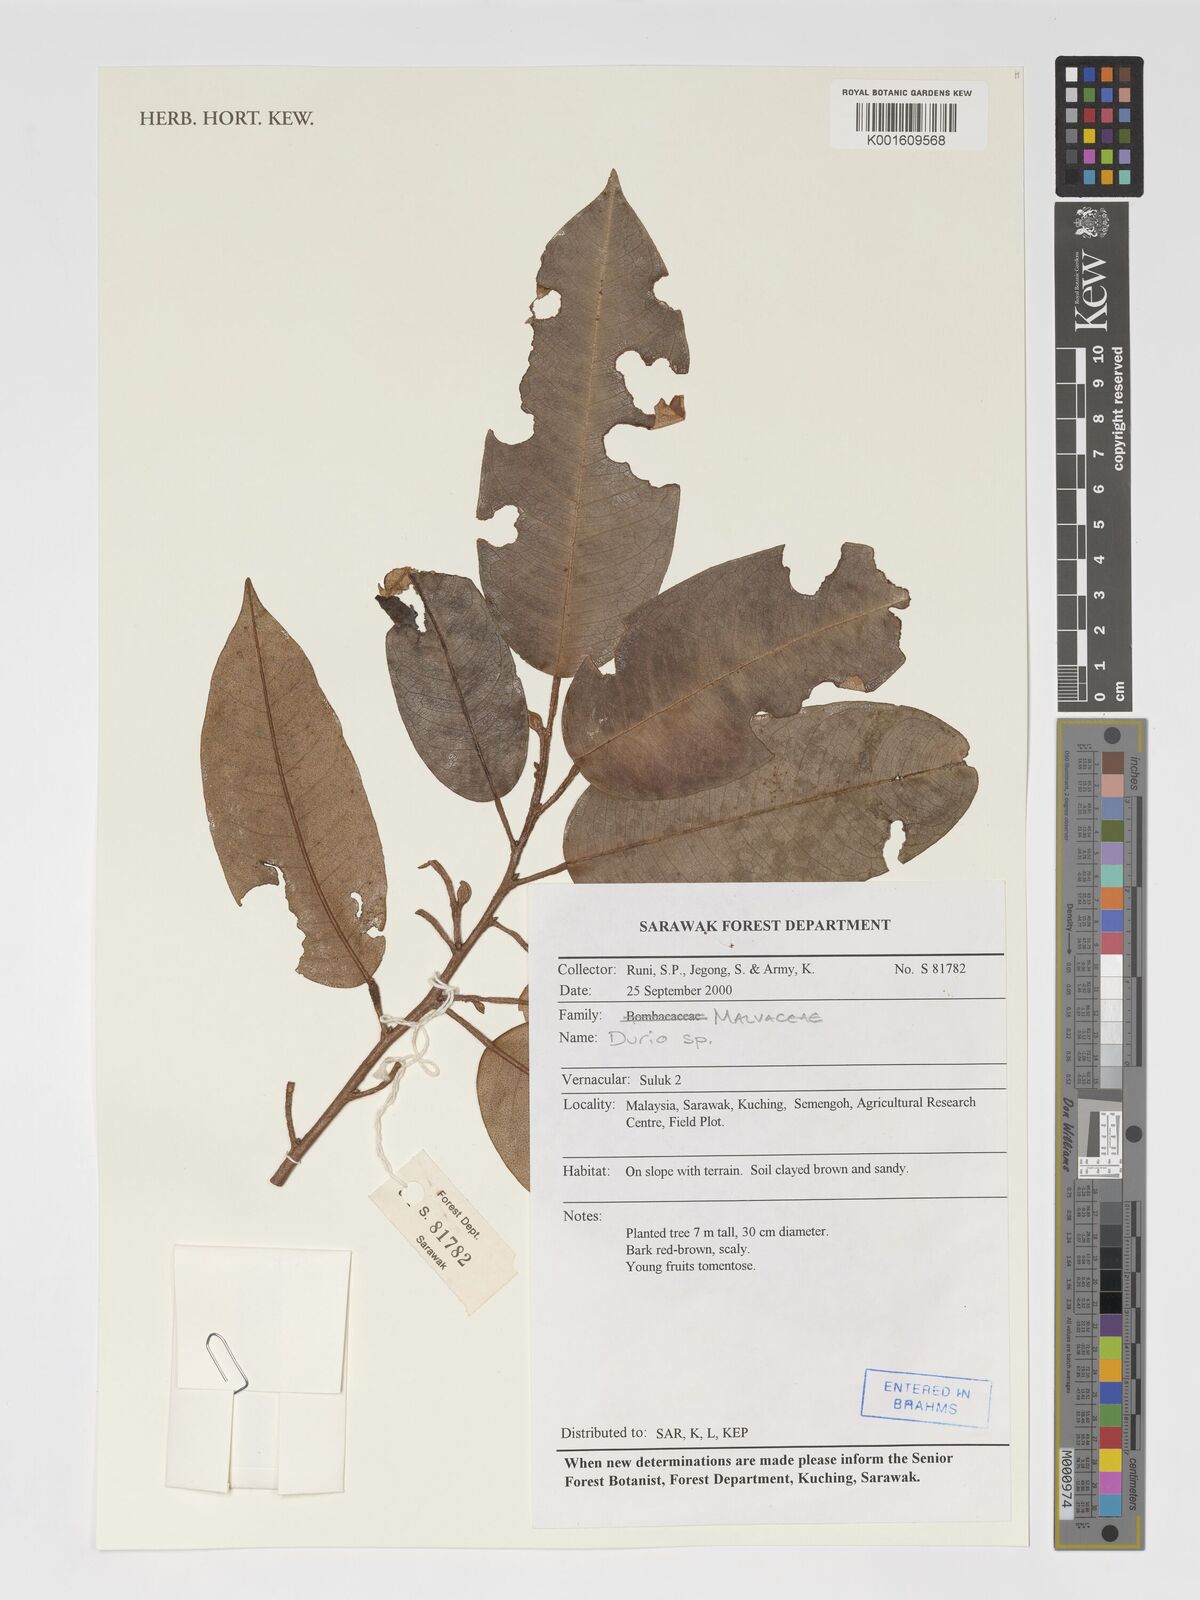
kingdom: Plantae
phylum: Tracheophyta
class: Magnoliopsida
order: Malvales
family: Malvaceae
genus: Durio
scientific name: Durio
